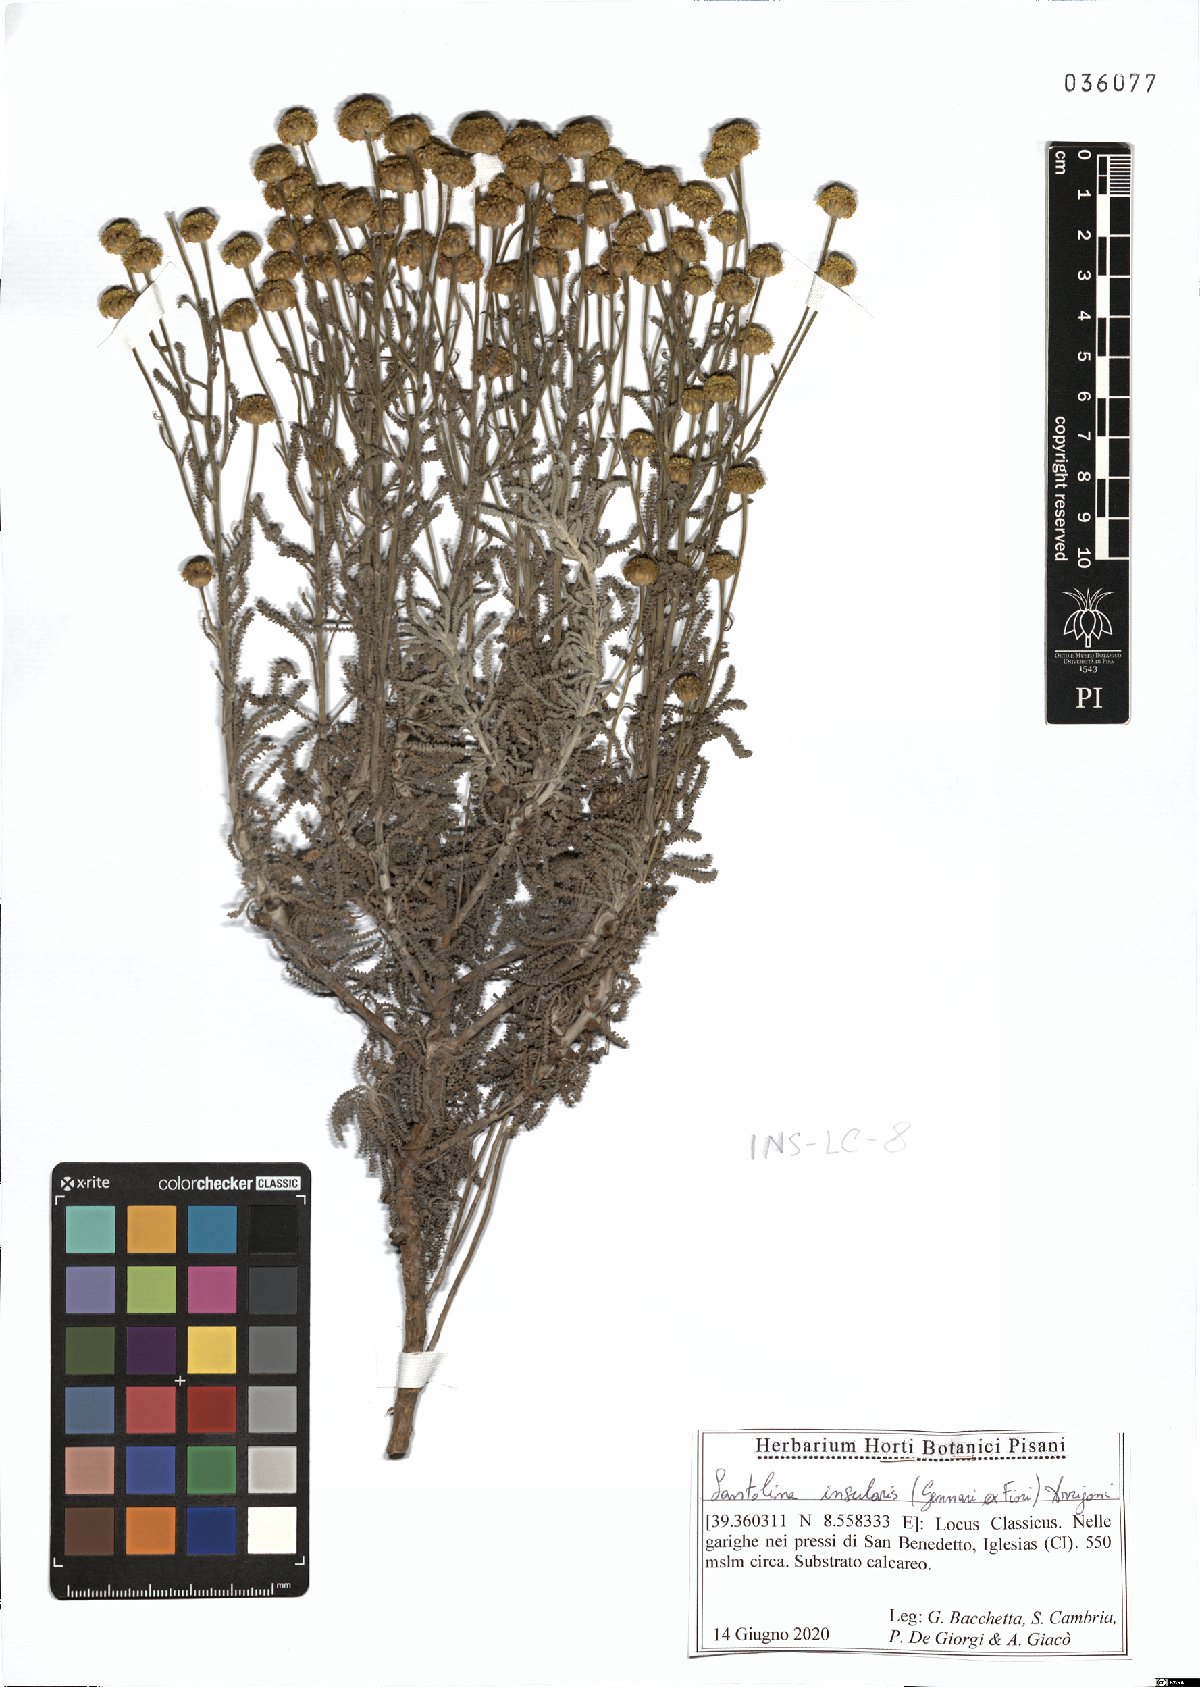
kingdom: Plantae
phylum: Tracheophyta
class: Magnoliopsida
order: Asterales
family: Asteraceae
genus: Santolina
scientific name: Santolina insularis
